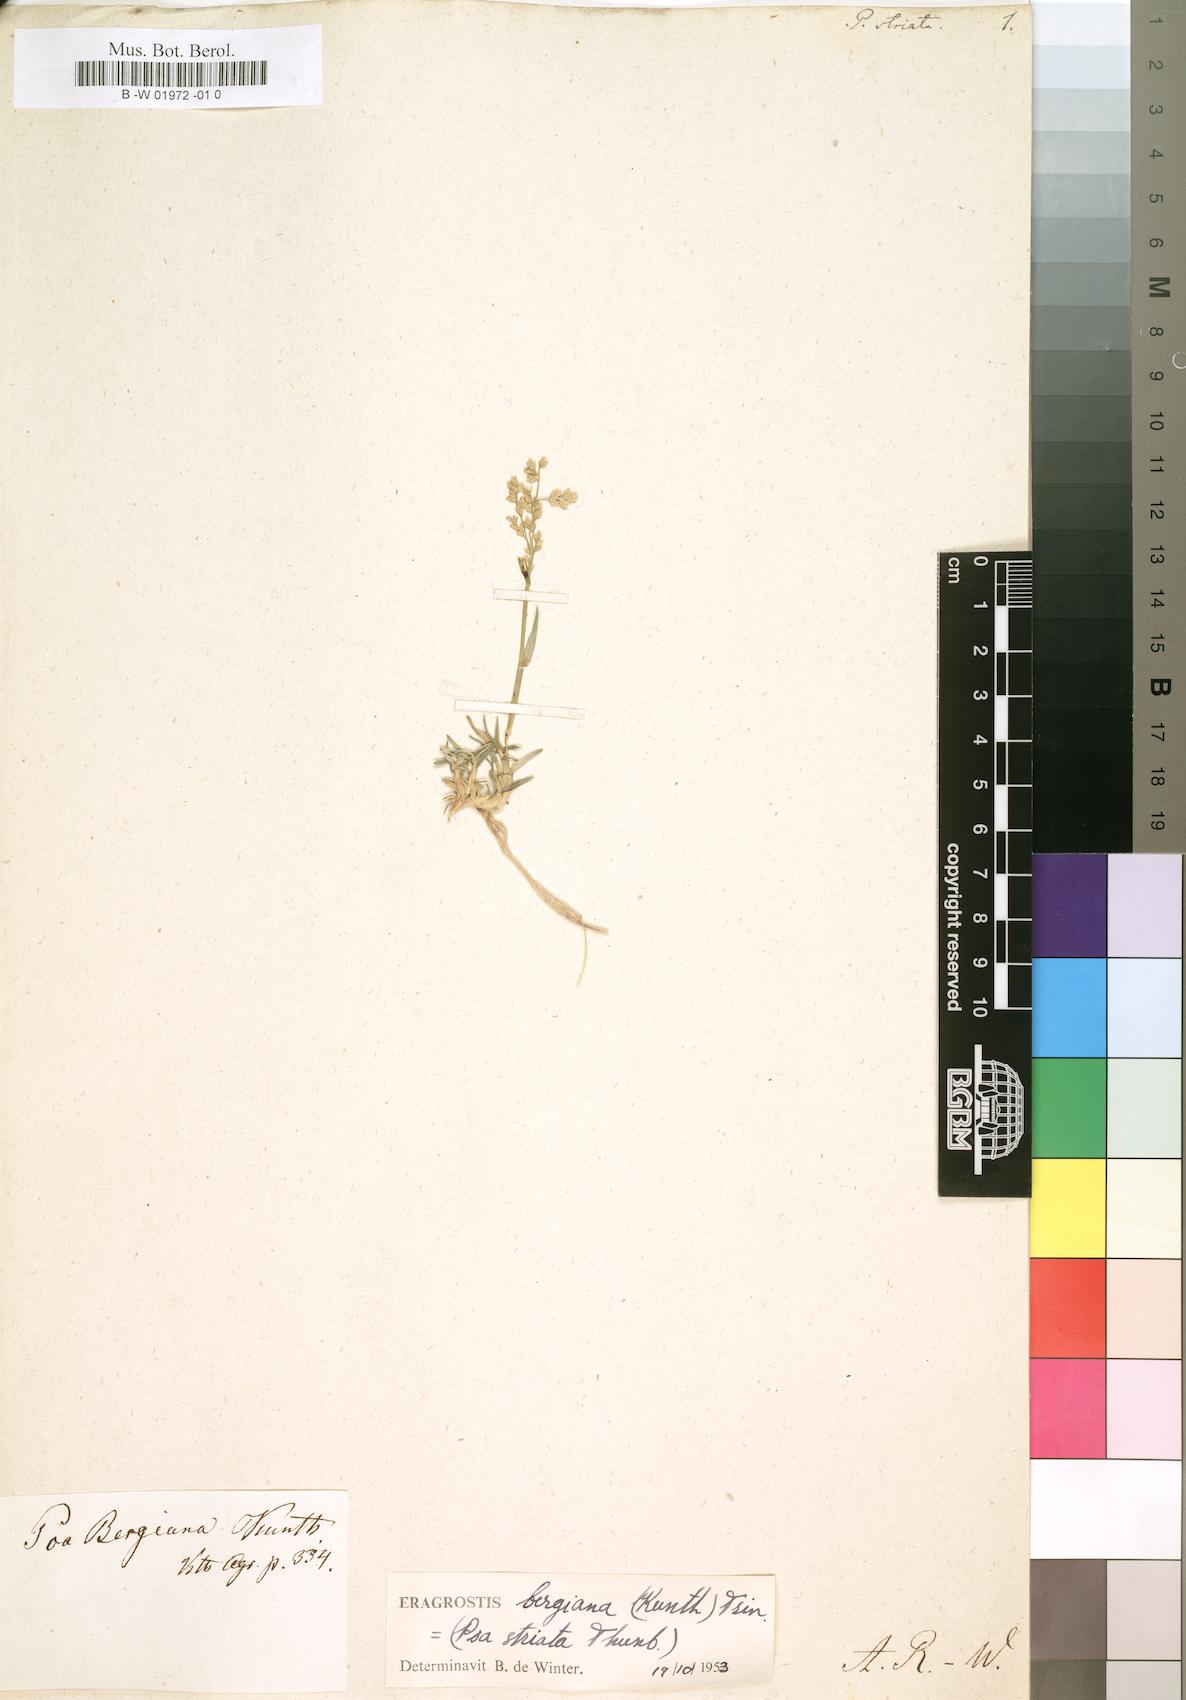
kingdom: Plantae
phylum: Tracheophyta
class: Liliopsida
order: Poales
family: Poaceae
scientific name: Poaceae
